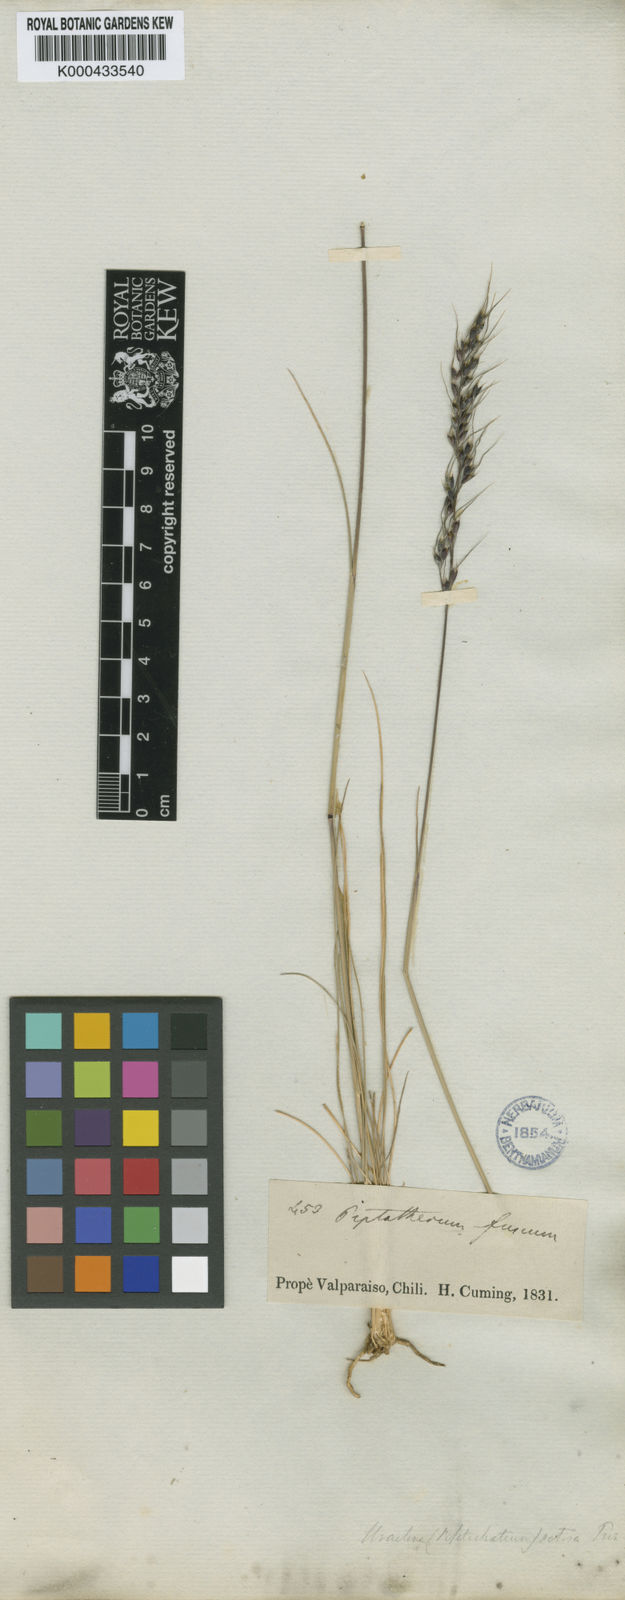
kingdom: Plantae
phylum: Tracheophyta
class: Liliopsida
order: Poales
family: Poaceae
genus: Piptatherum
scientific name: Piptatherum
